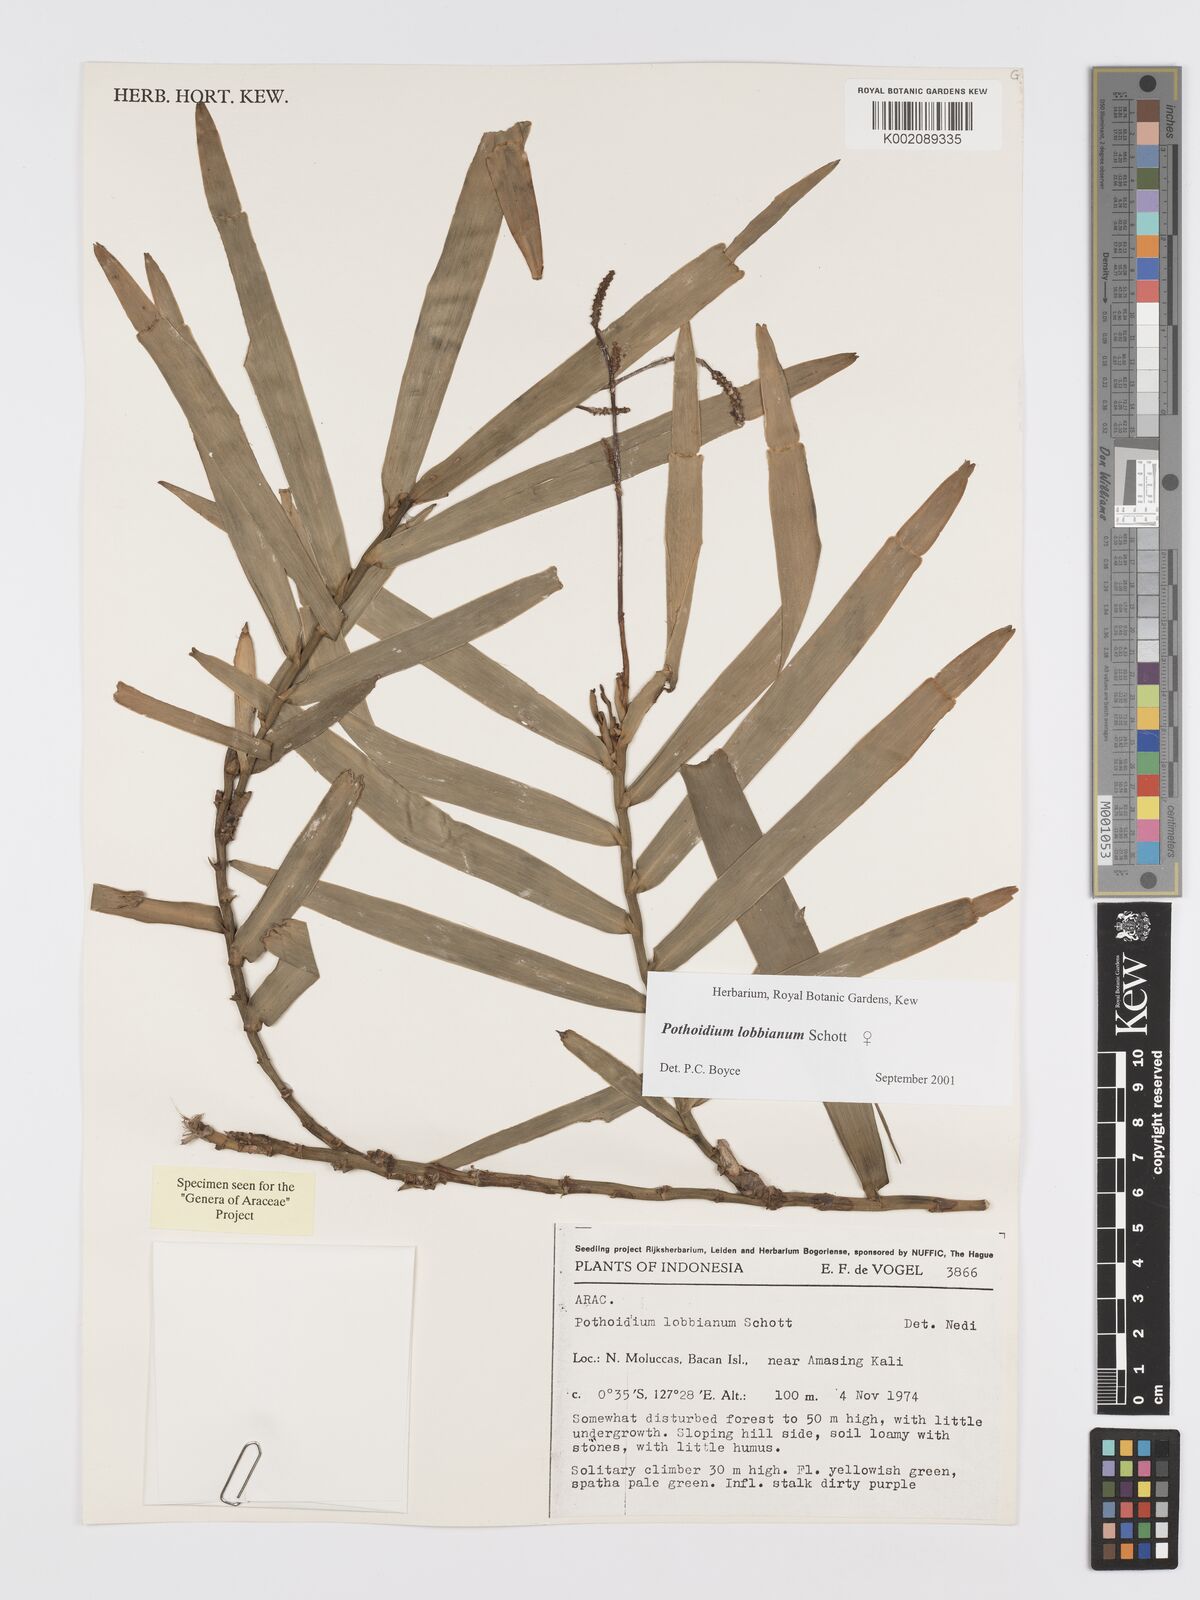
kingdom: Plantae
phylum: Tracheophyta
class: Liliopsida
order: Alismatales
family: Araceae
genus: Pothoidium
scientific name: Pothoidium lobbianum
